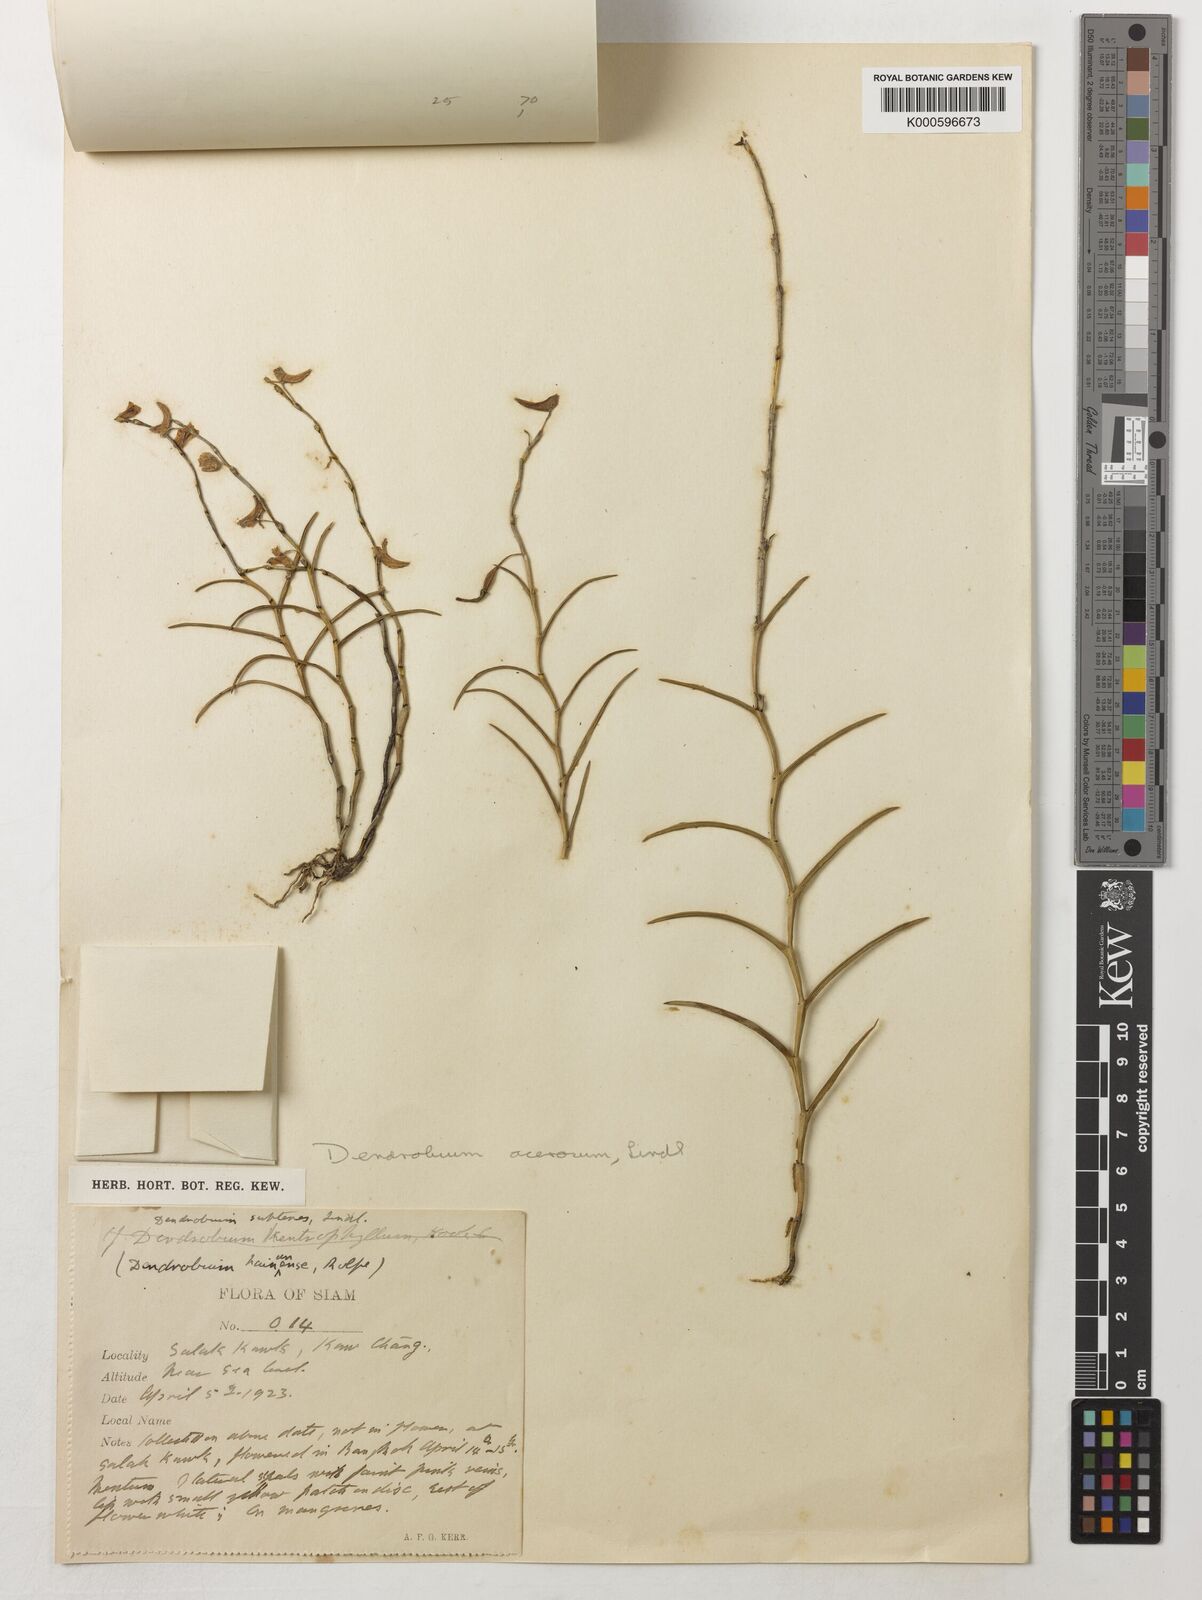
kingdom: Plantae
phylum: Tracheophyta
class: Liliopsida
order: Asparagales
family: Orchidaceae
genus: Dendrobium
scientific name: Dendrobium acerosum
